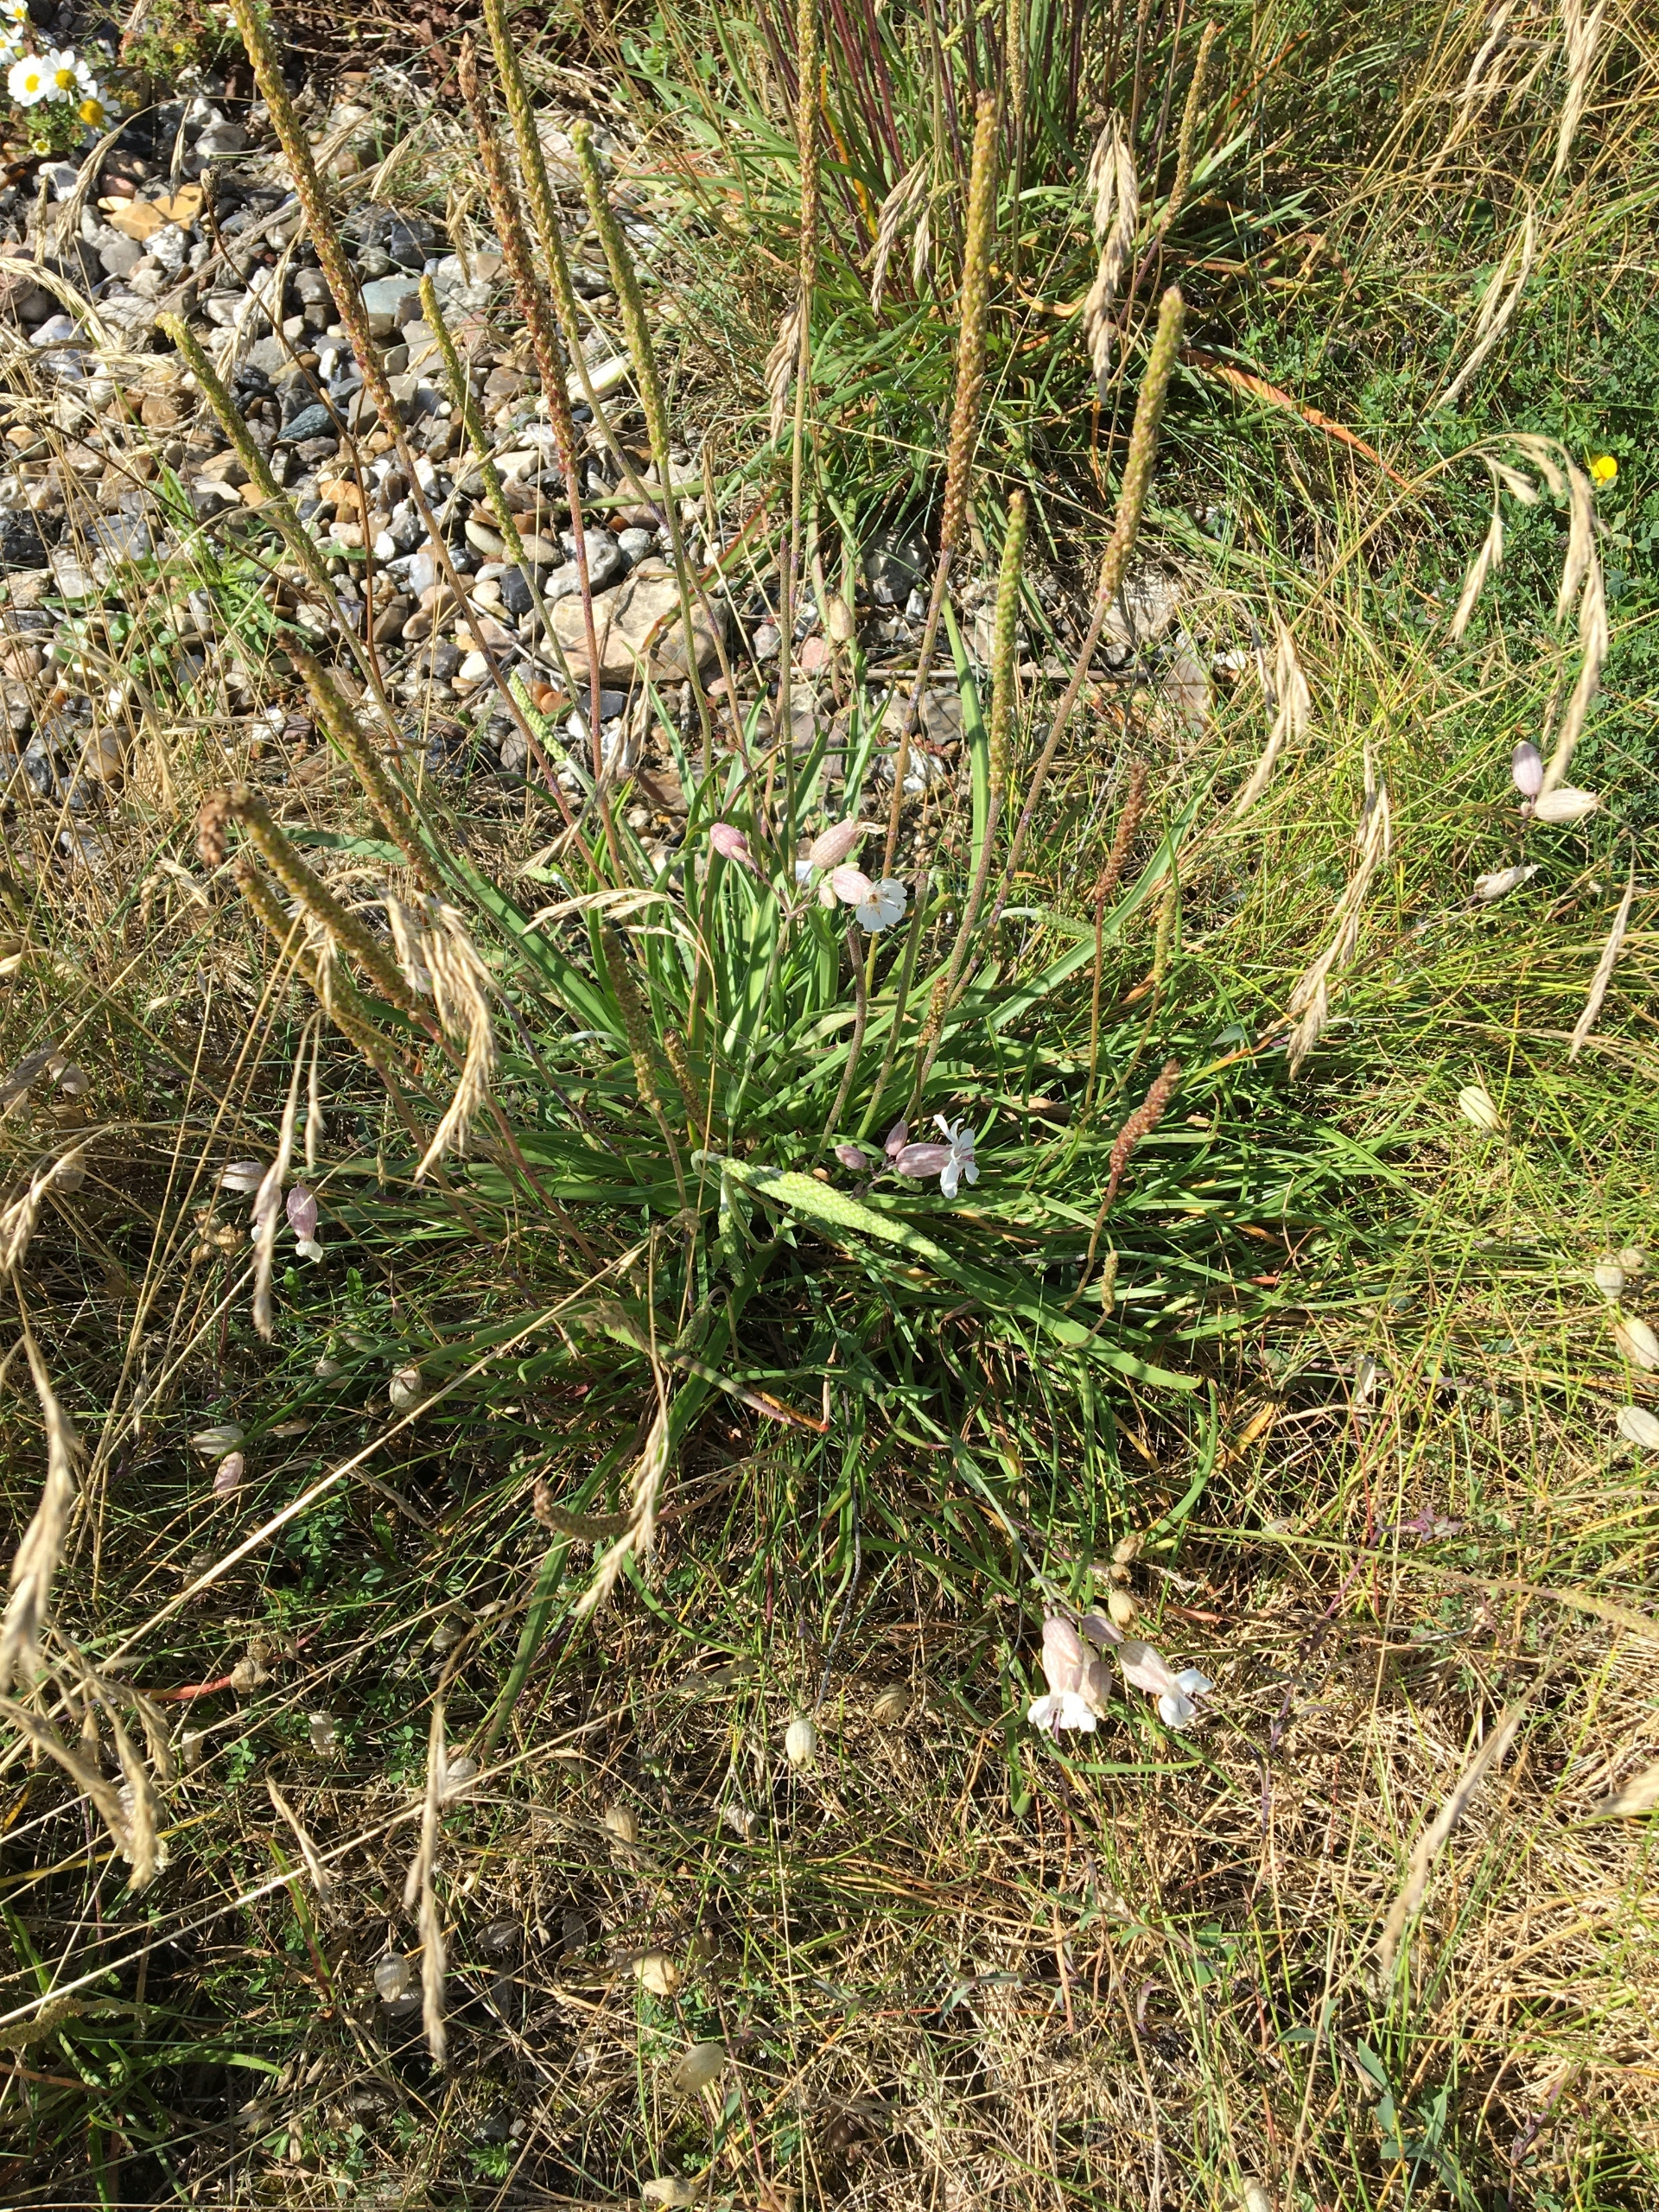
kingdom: Plantae
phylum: Tracheophyta
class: Magnoliopsida
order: Lamiales
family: Plantaginaceae
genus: Plantago
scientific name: Plantago maritima
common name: Strand-vejbred
